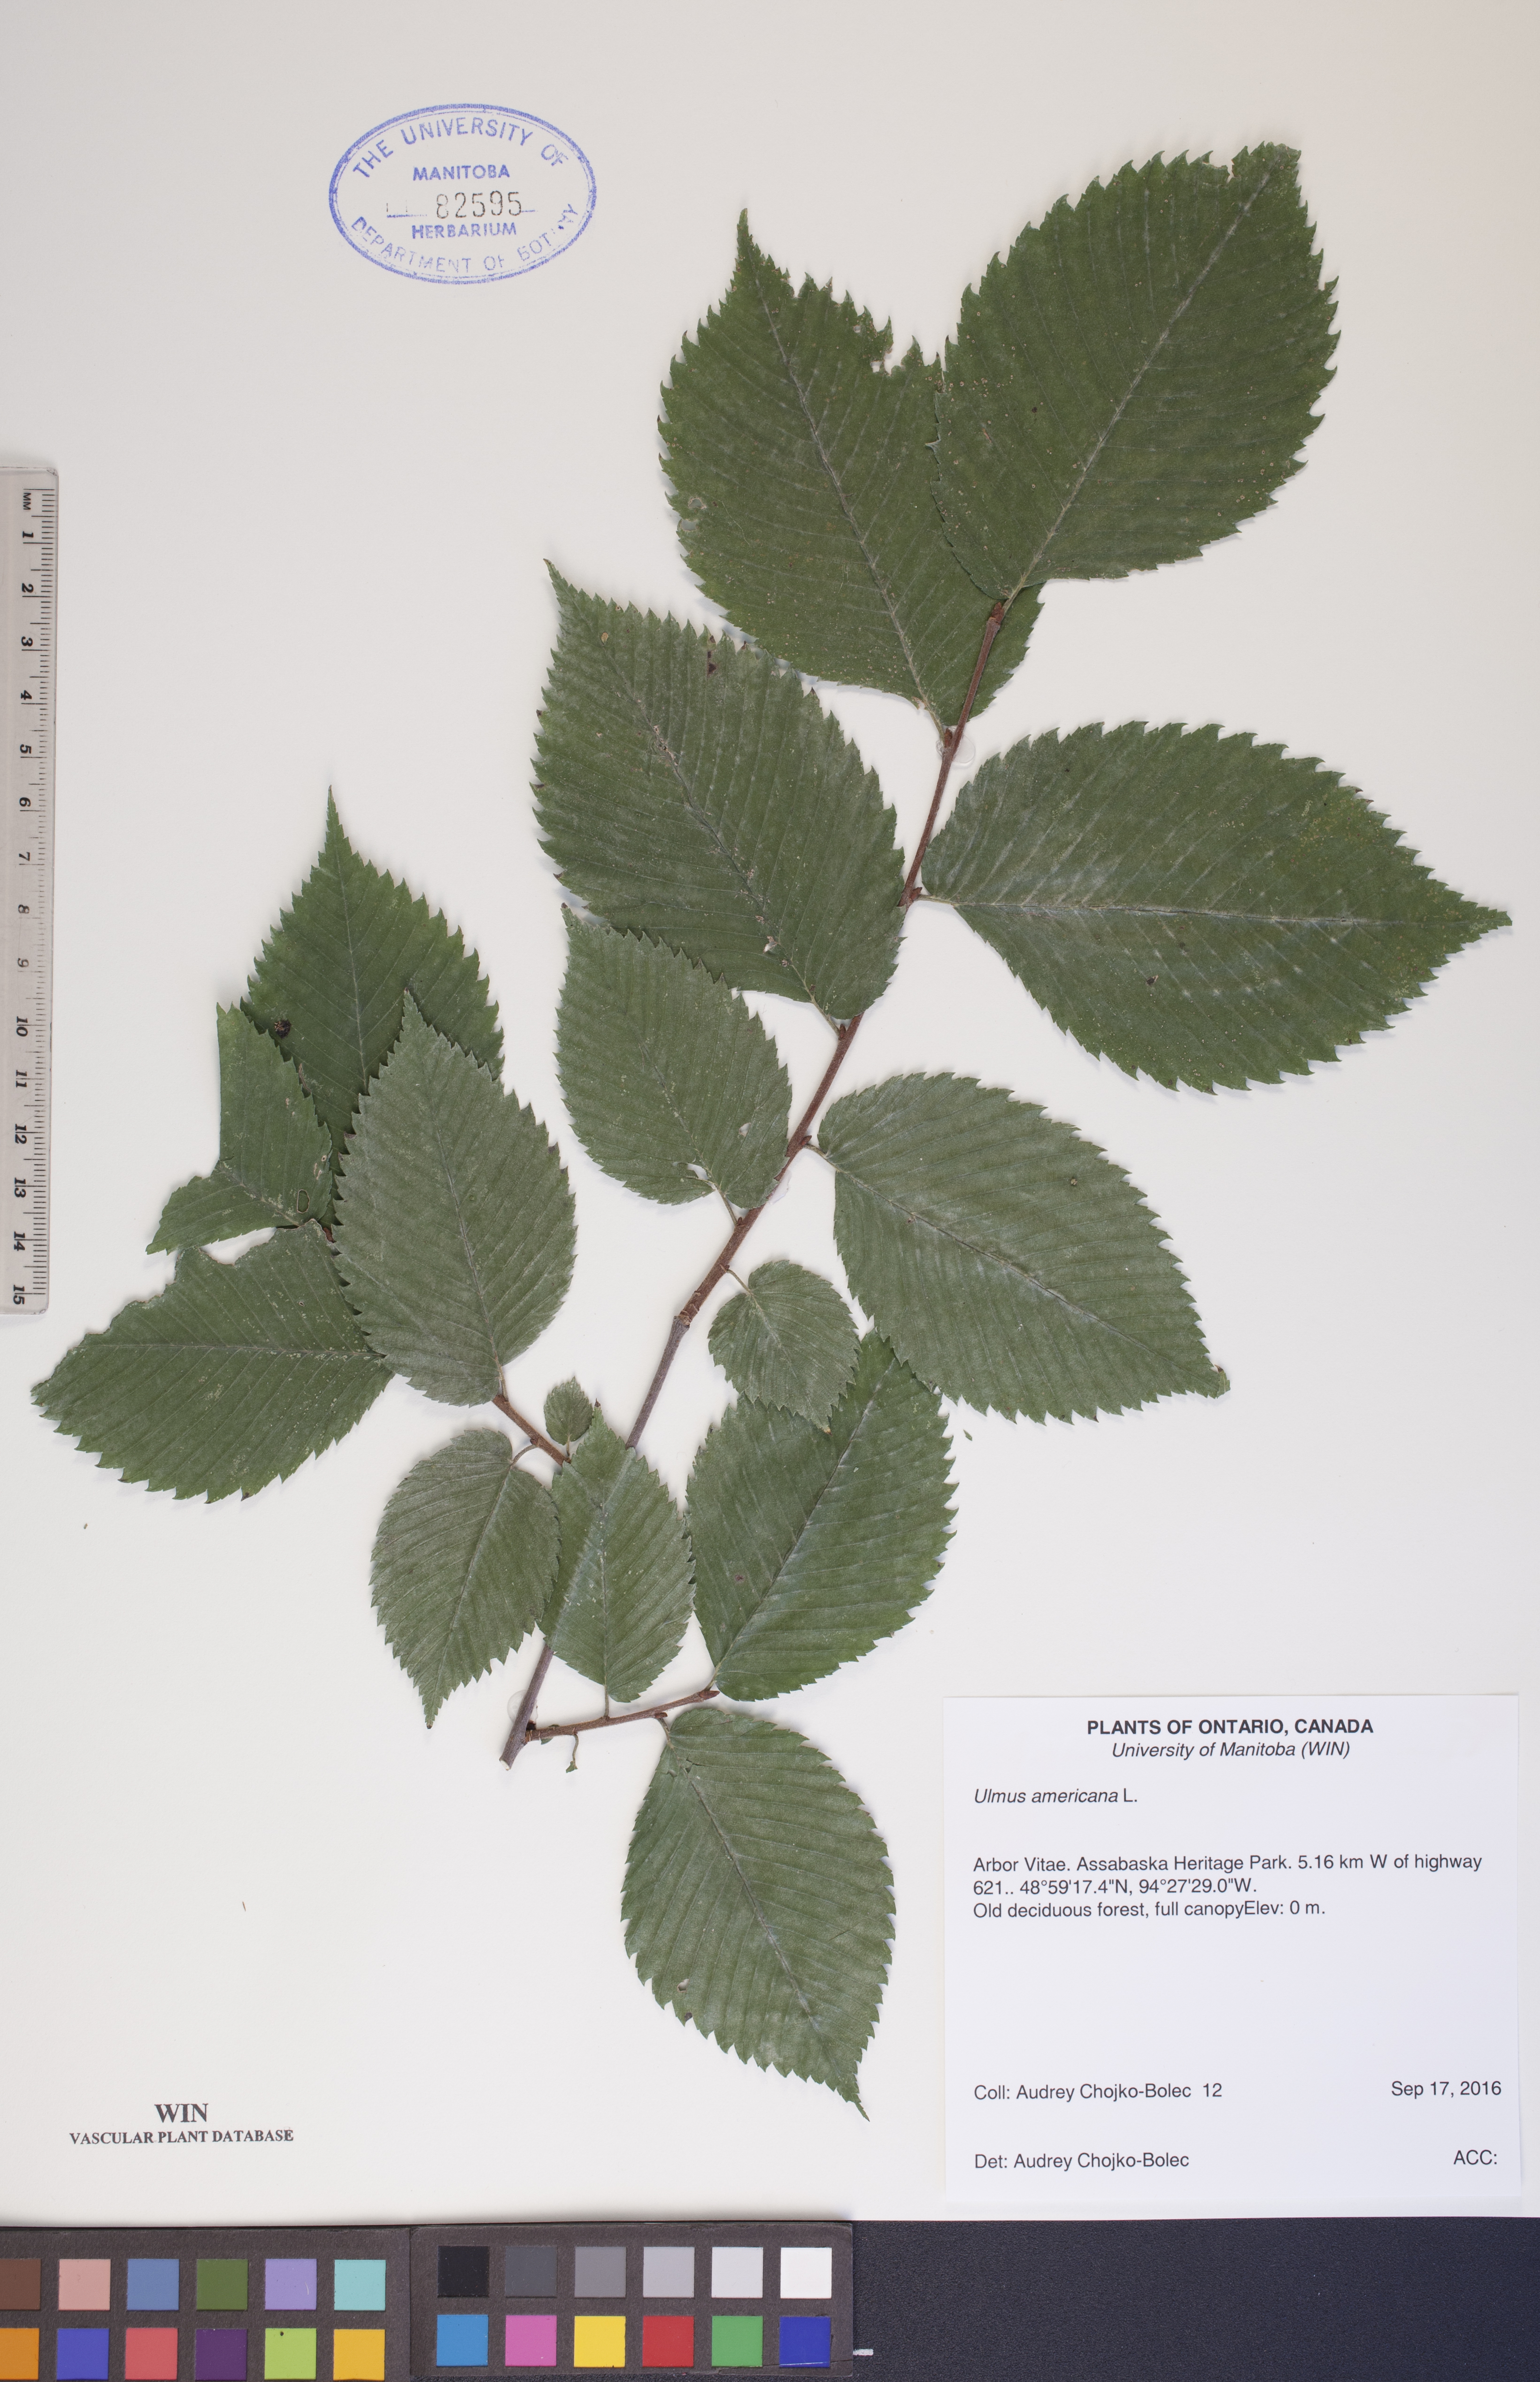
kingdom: Plantae
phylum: Tracheophyta
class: Magnoliopsida
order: Rosales
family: Ulmaceae
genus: Ulmus
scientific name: Ulmus americana
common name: American elm
